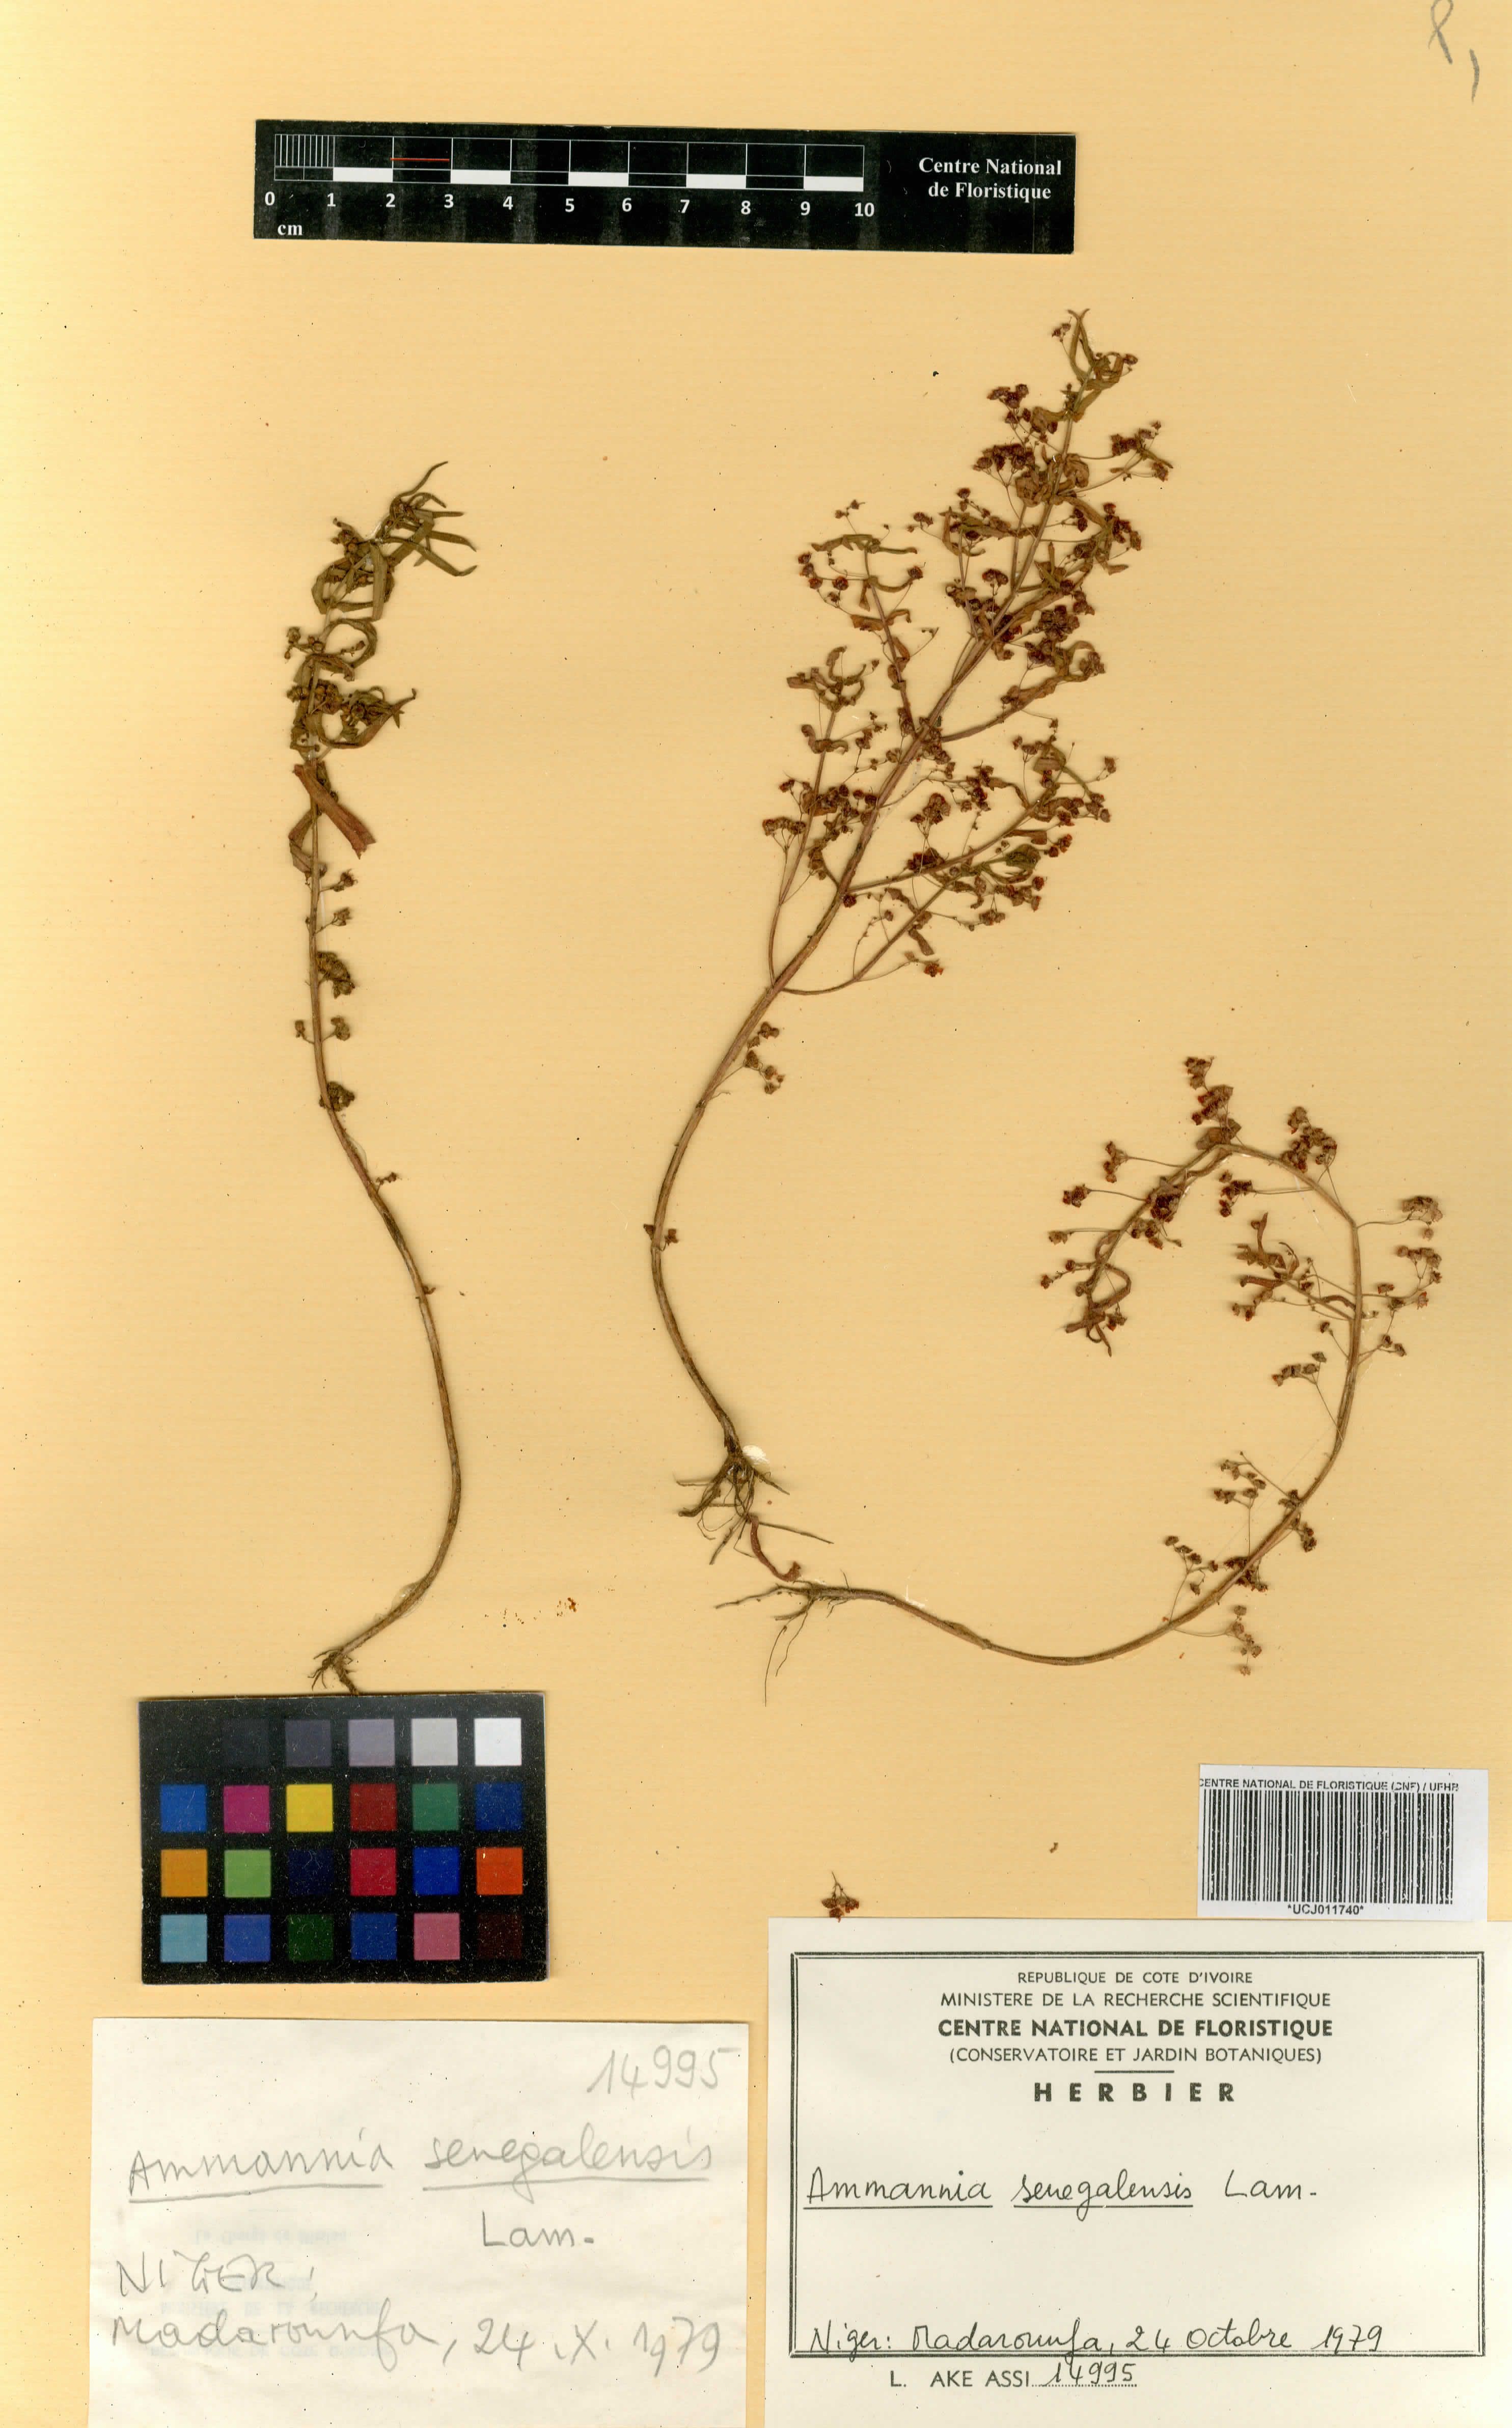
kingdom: Plantae
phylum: Tracheophyta
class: Magnoliopsida
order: Myrtales
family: Lythraceae
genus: Ammannia
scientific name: Ammannia senegalensis
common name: Red ammannia
